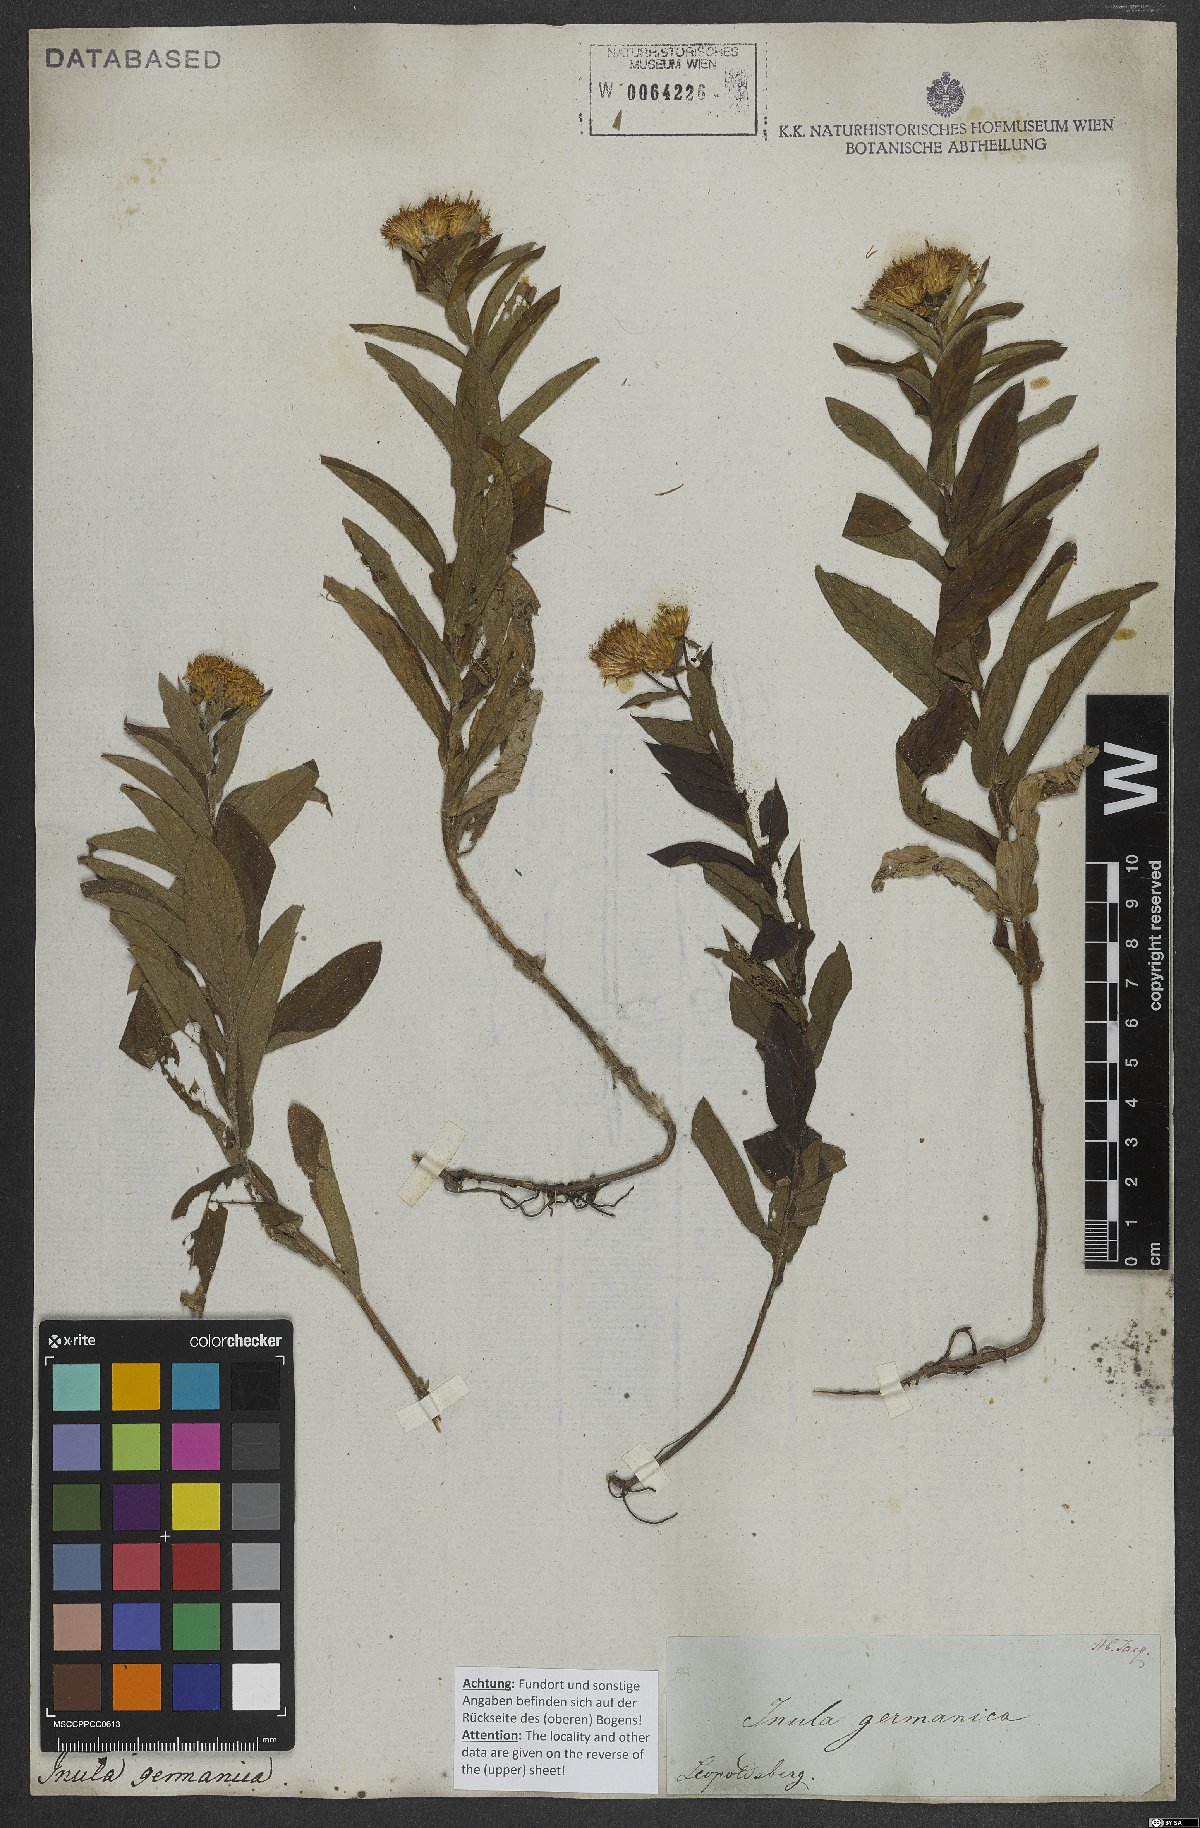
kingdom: Plantae
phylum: Tracheophyta
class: Magnoliopsida
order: Asterales
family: Asteraceae
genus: Pentanema
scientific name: Pentanema germanicum
